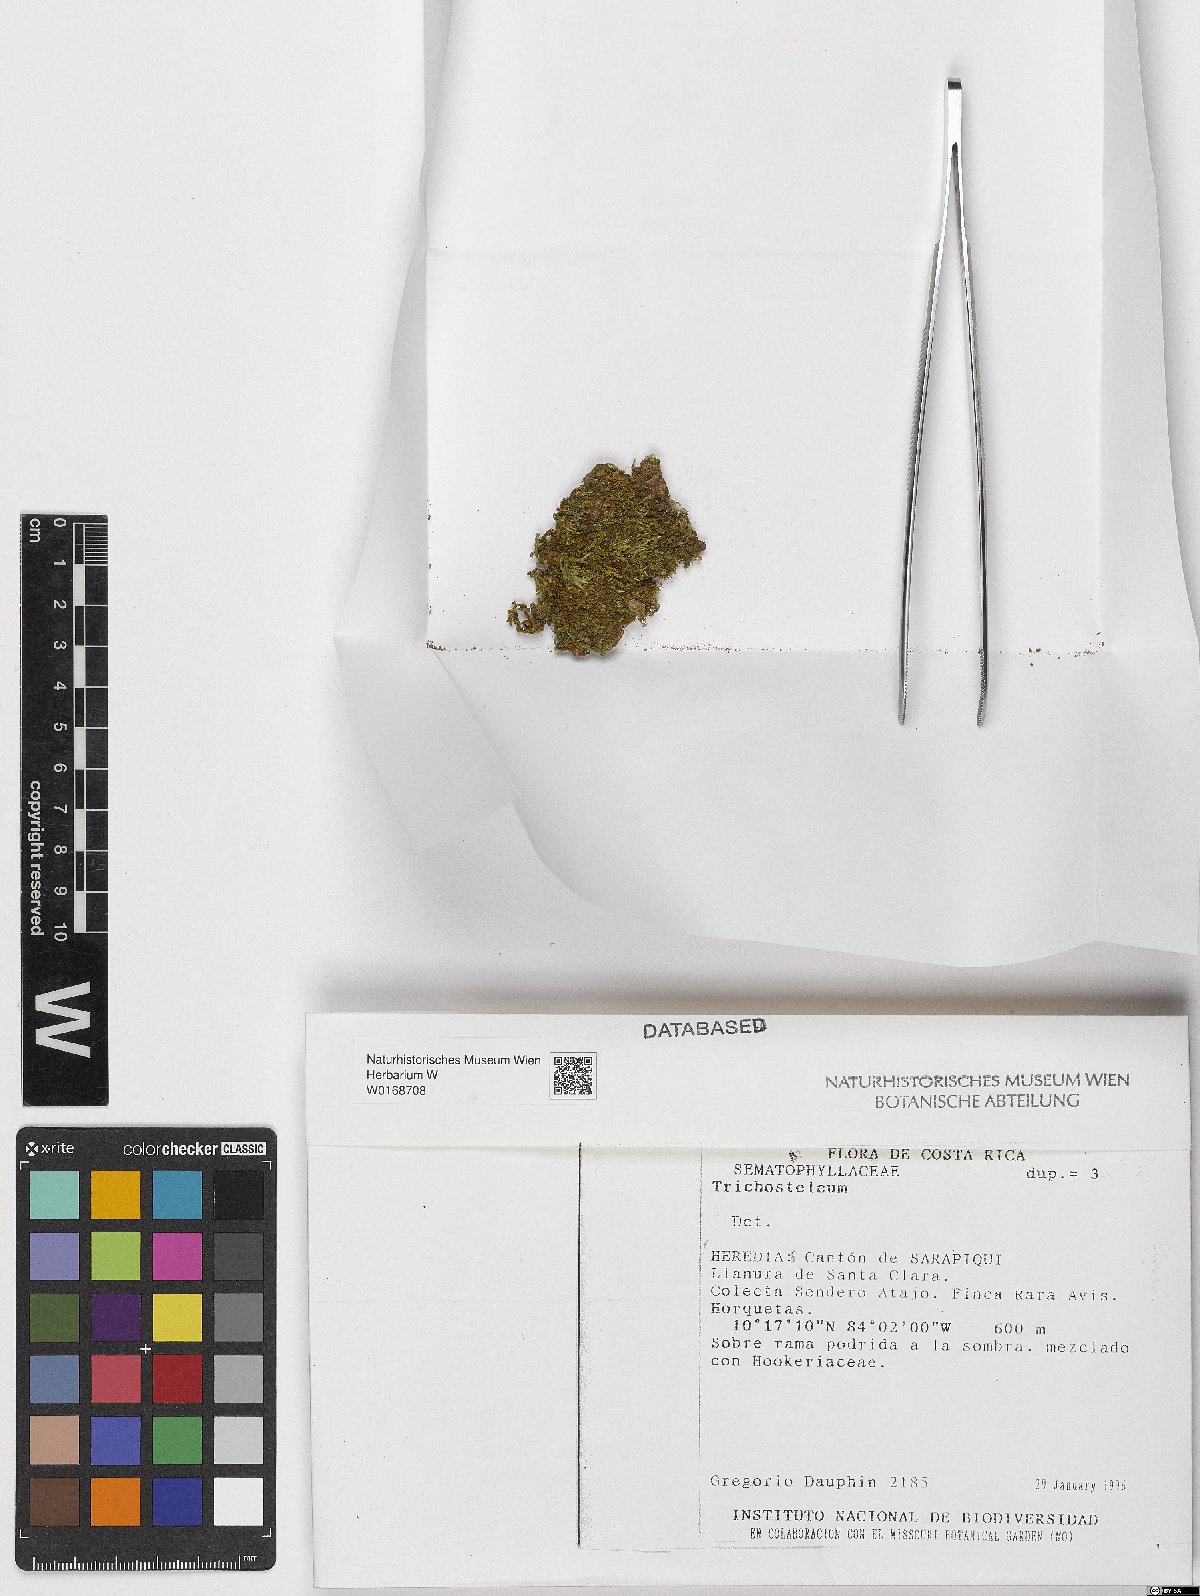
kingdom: Plantae
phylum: Bryophyta
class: Bryopsida
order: Hypnales
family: Sematophyllaceae
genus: Trichosteleum
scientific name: Trichosteleum
